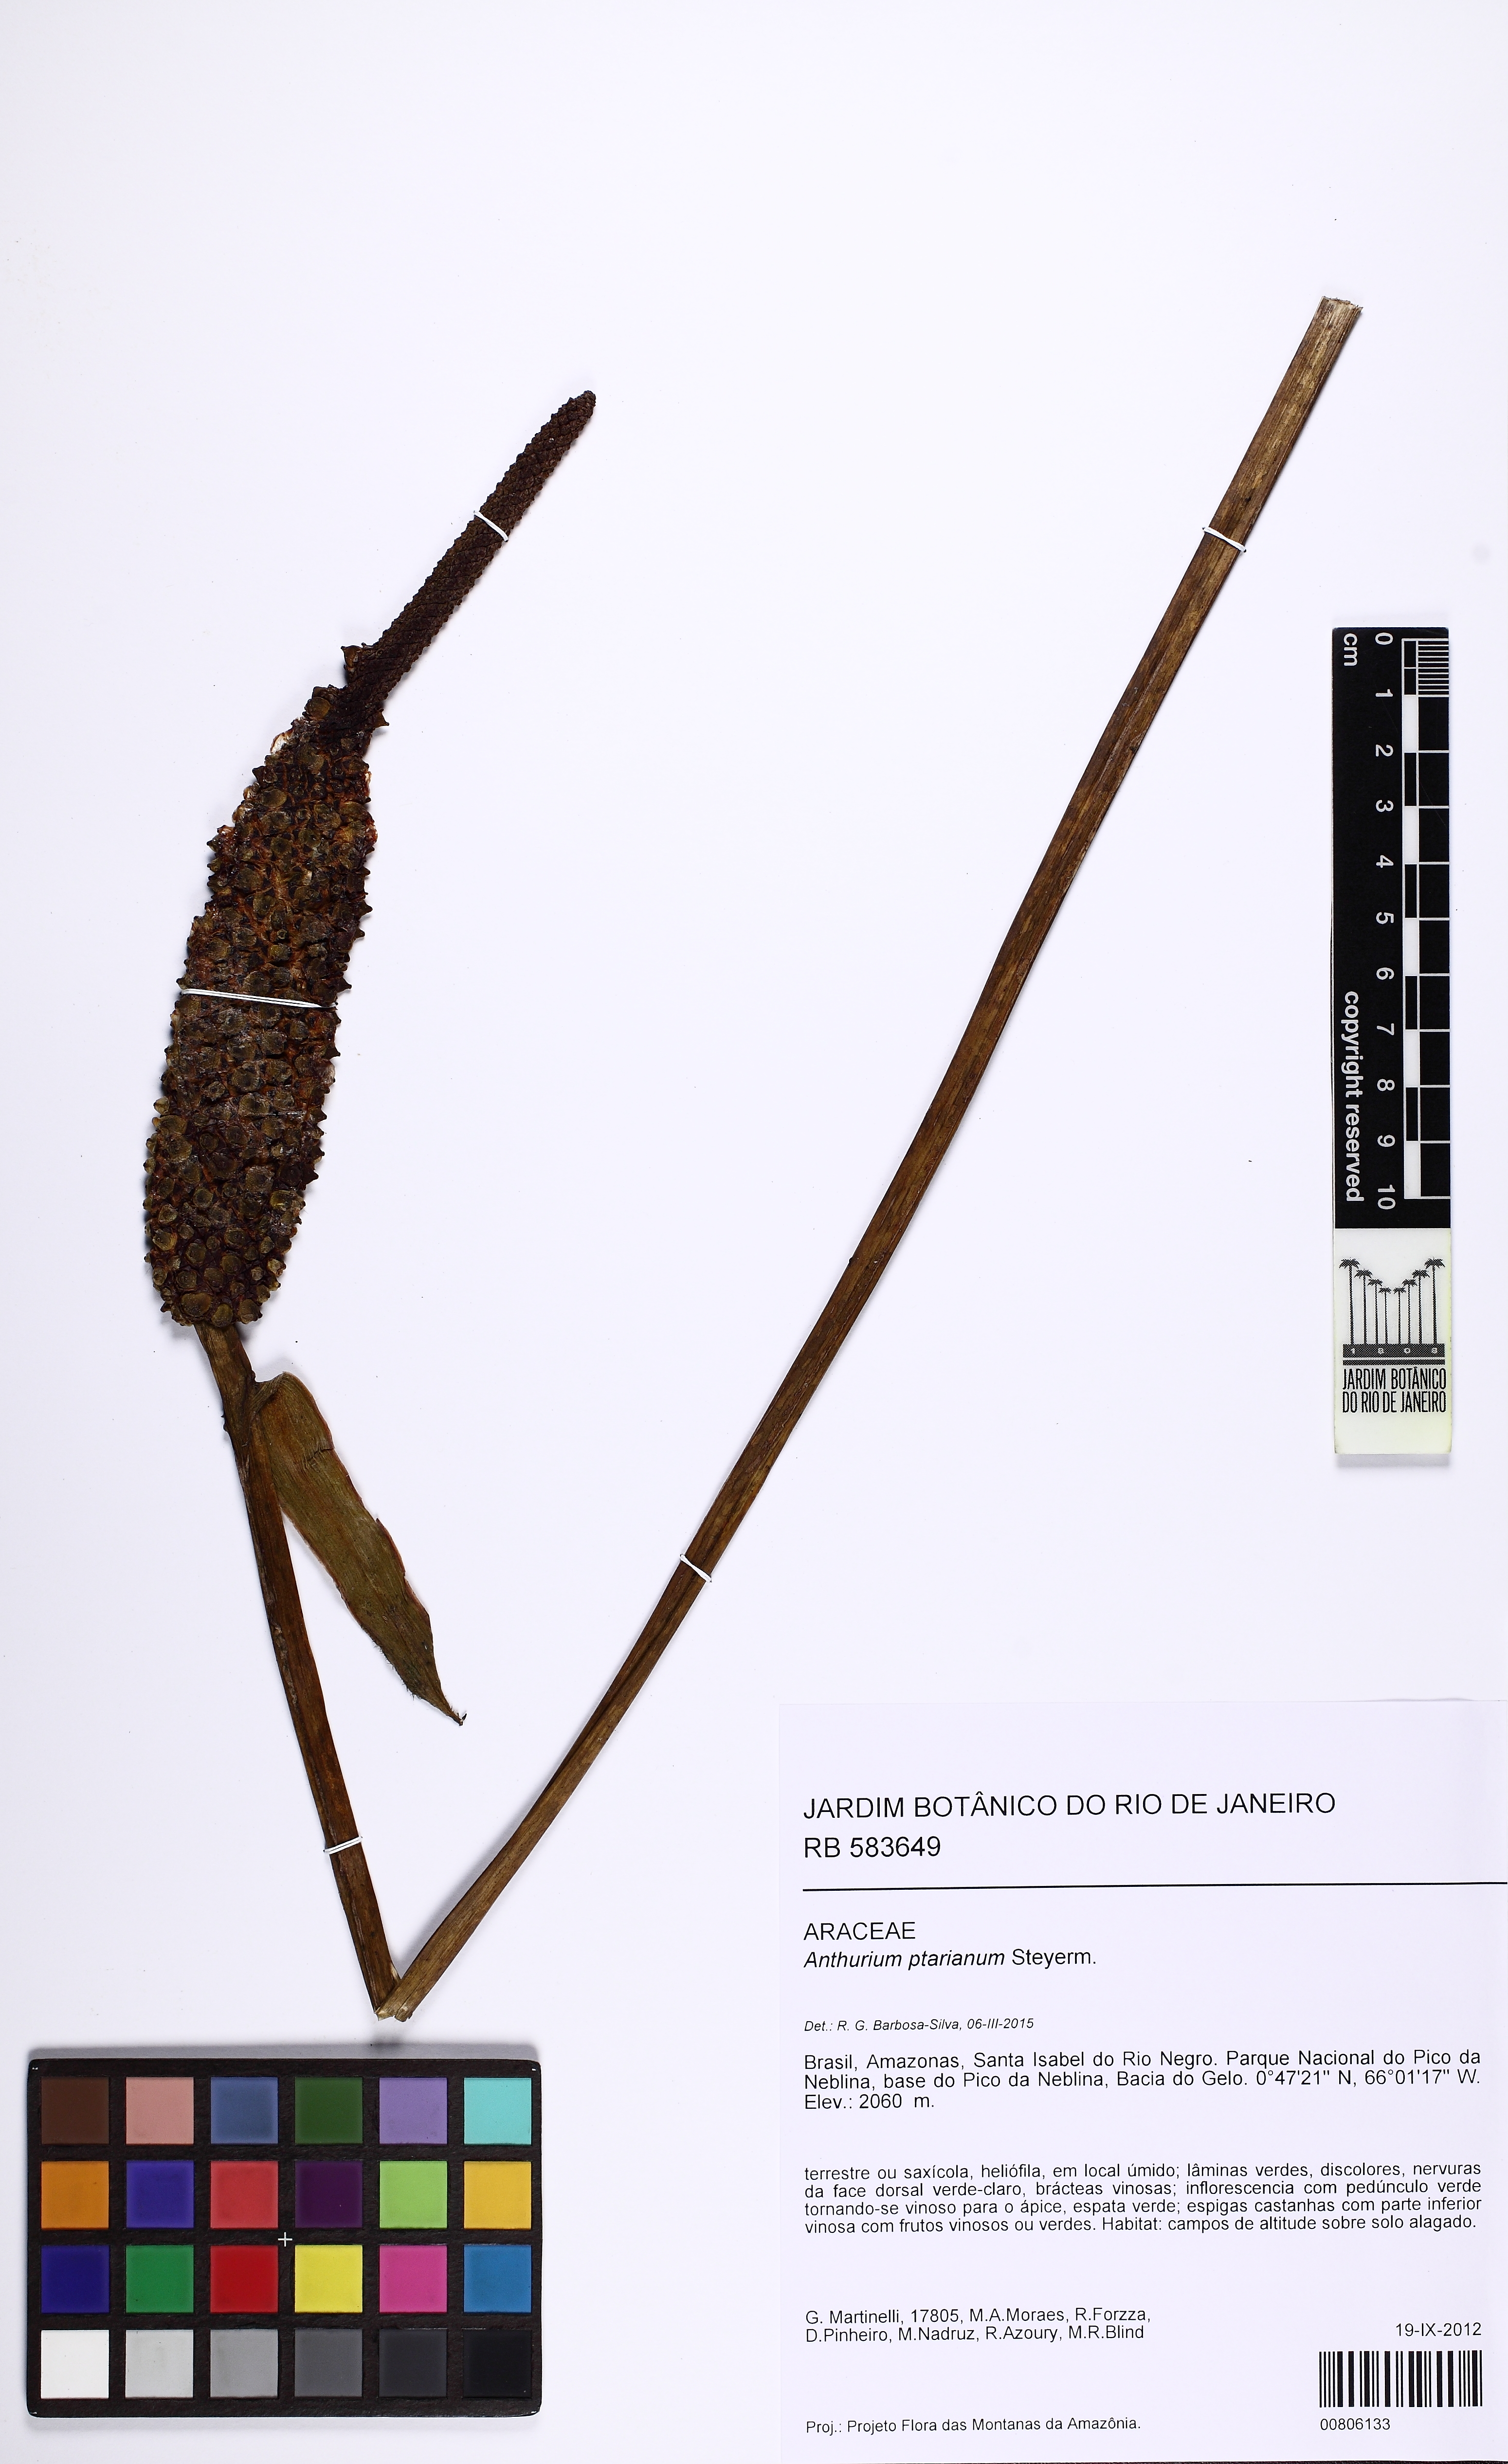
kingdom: Plantae
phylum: Tracheophyta
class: Liliopsida
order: Alismatales
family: Araceae
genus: Anthurium
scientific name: Anthurium ptarianum
